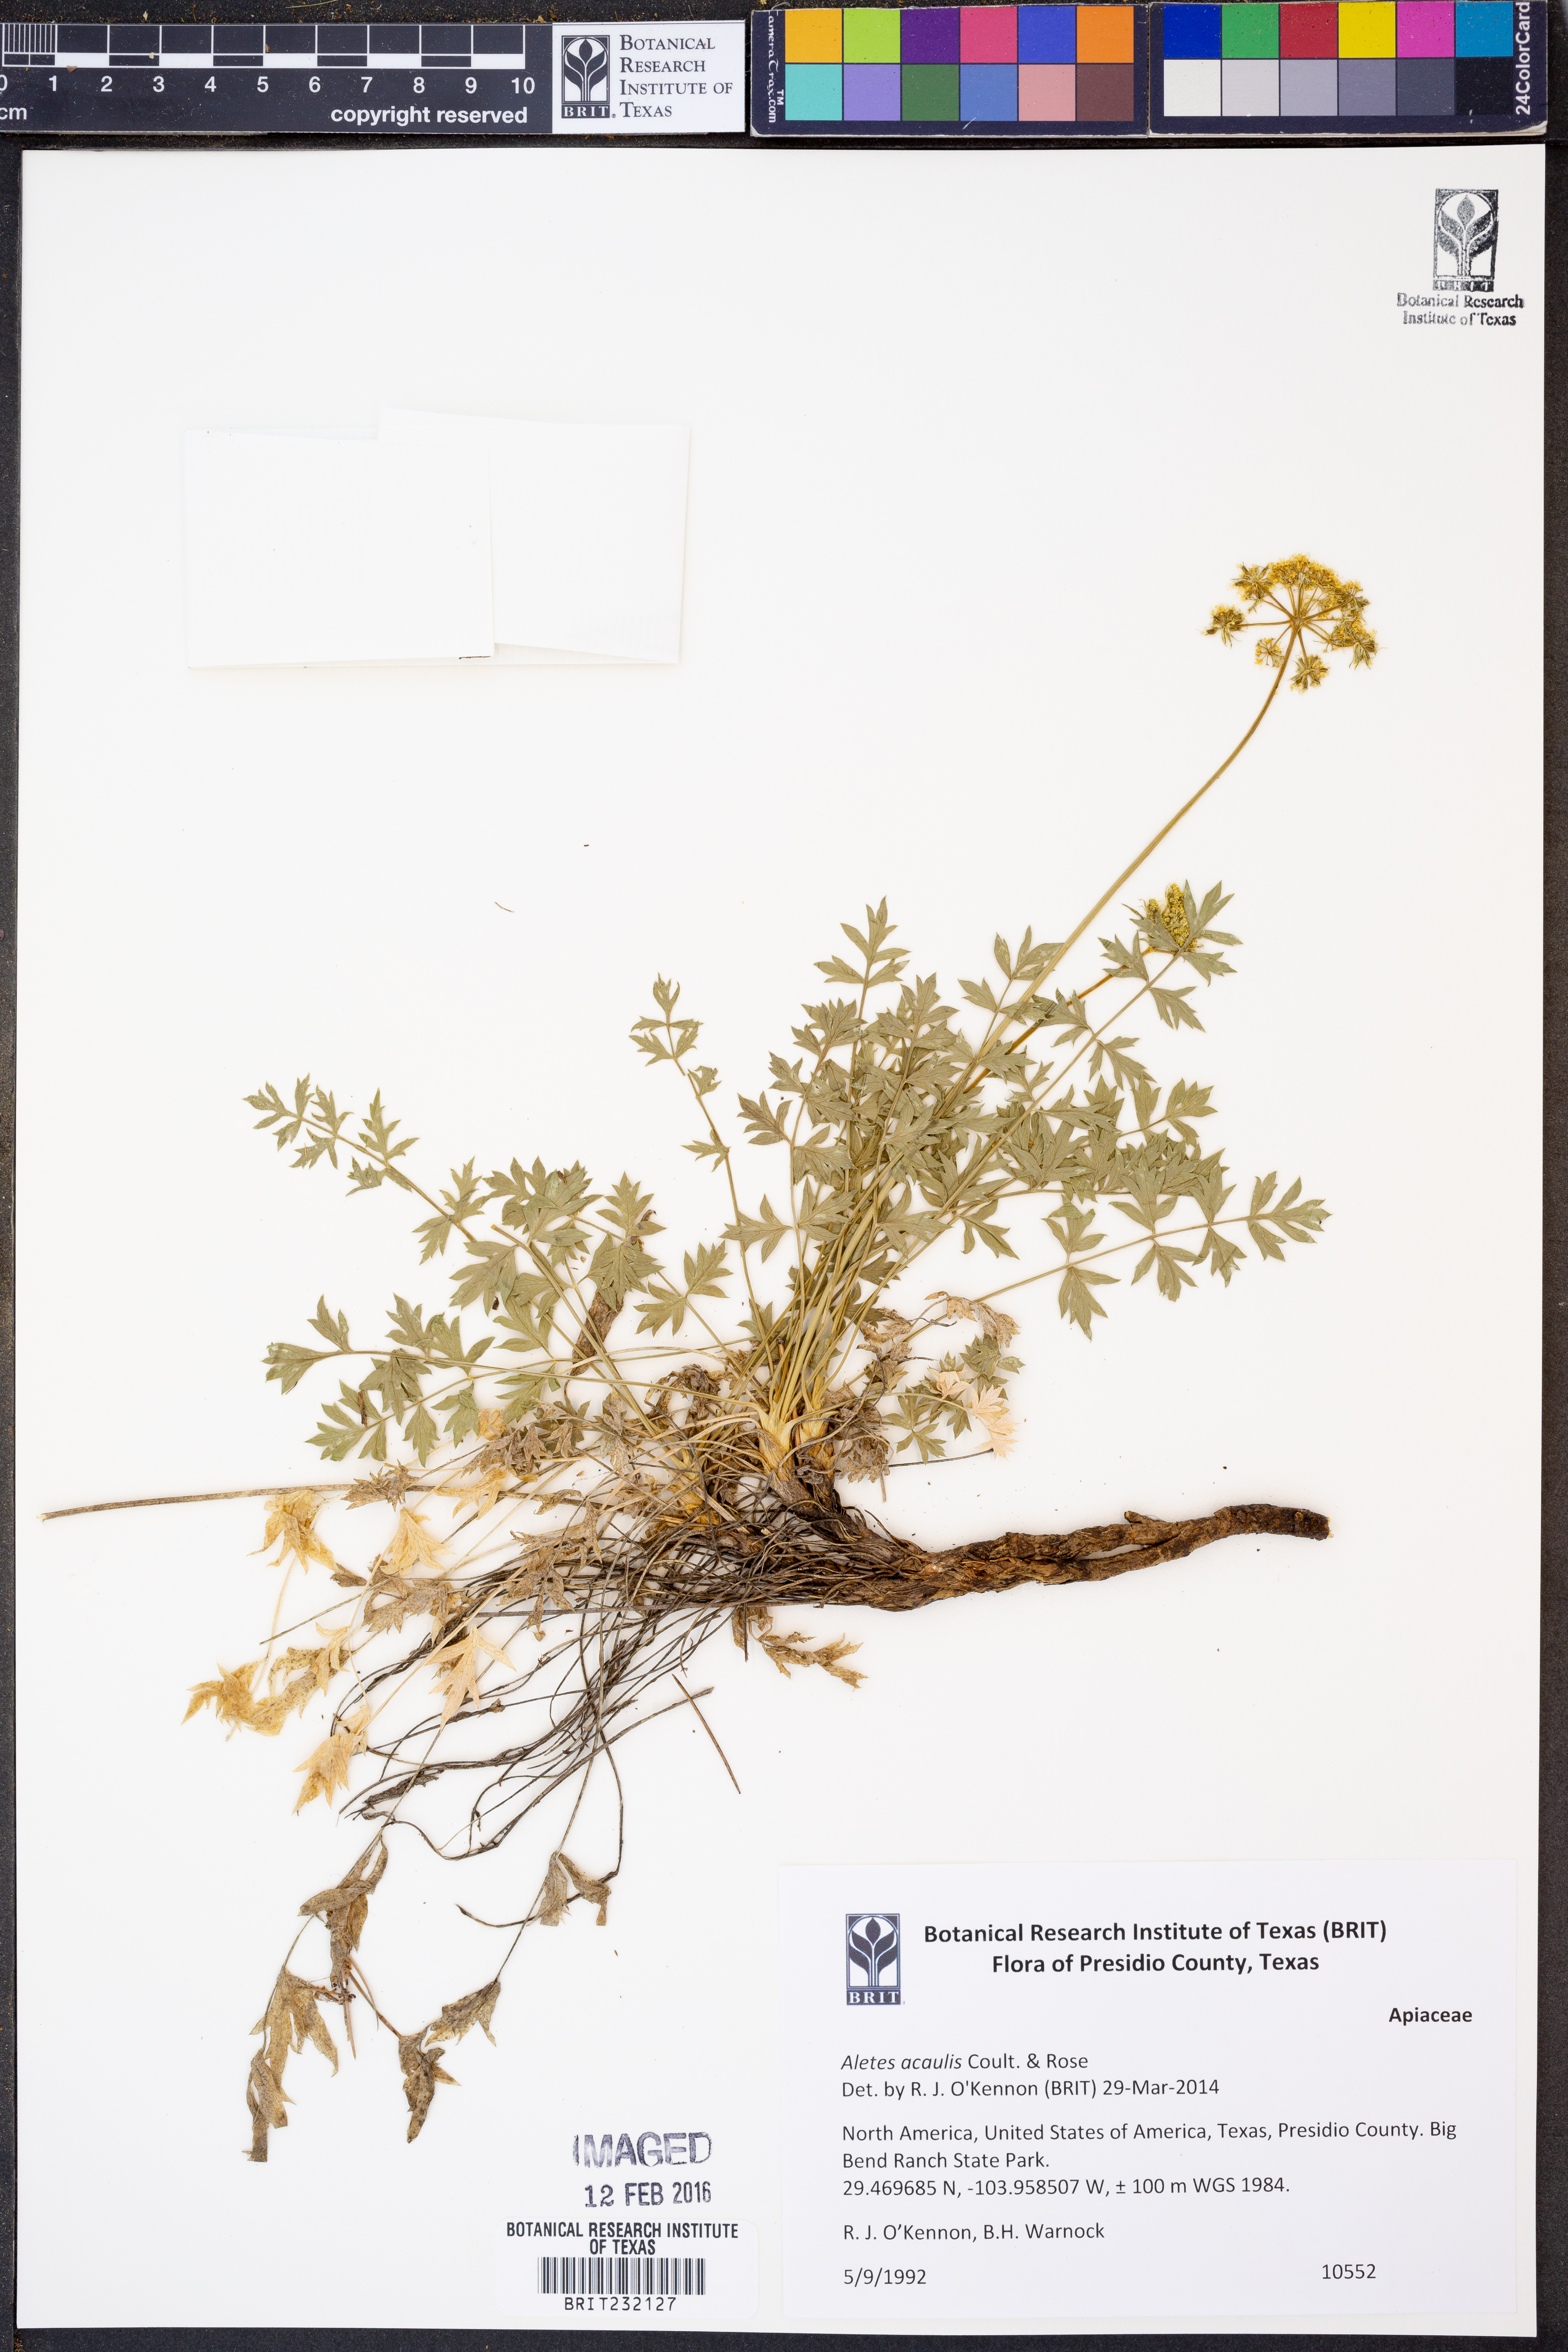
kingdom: Plantae
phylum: Tracheophyta
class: Magnoliopsida
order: Apiales
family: Apiaceae
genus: Cymopterus
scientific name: Cymopterus hallii
